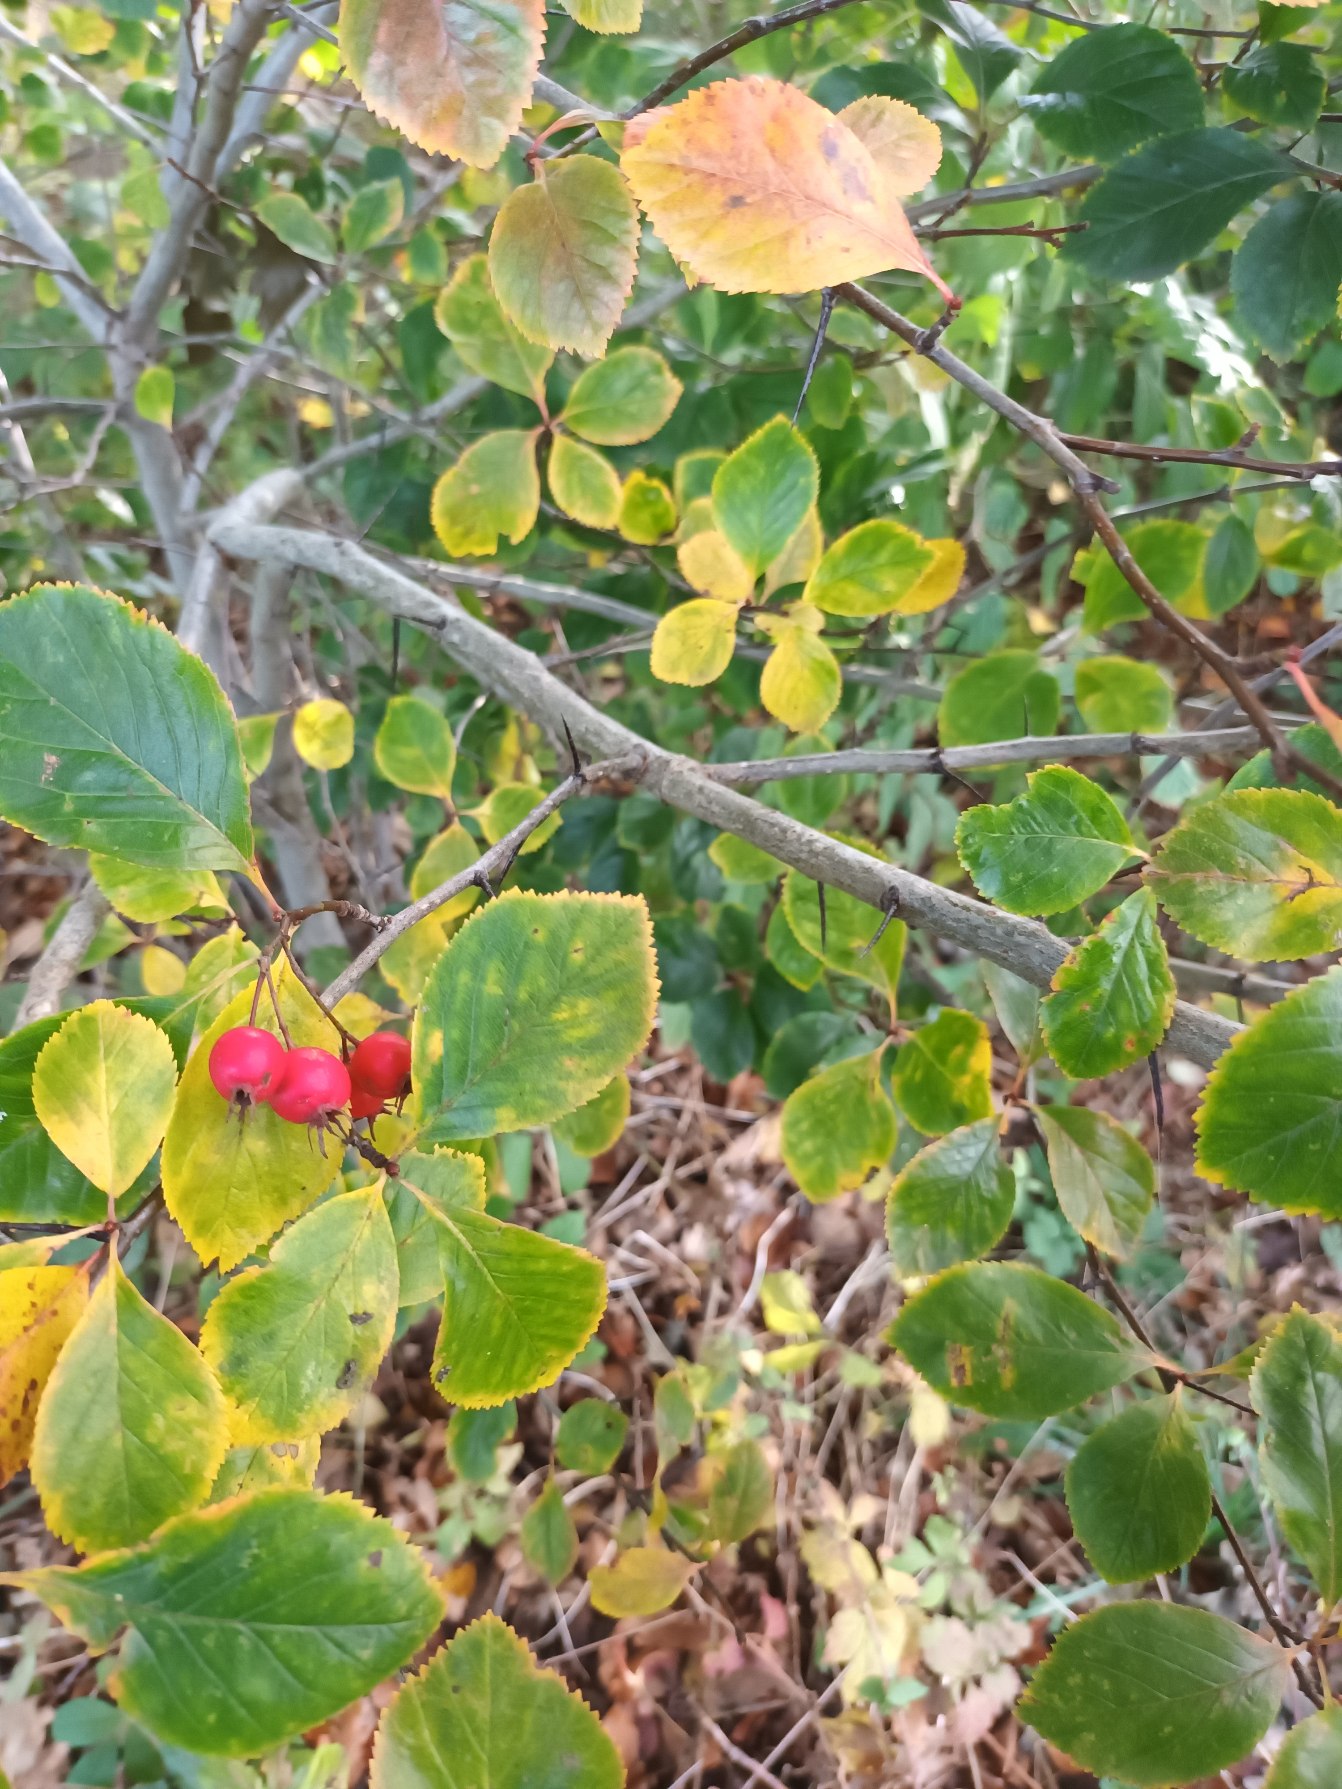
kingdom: Plantae
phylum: Tracheophyta
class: Magnoliopsida
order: Rosales
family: Rosaceae
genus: Crataegus
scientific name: Crataegus persimilis
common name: Syltornet tjørn
